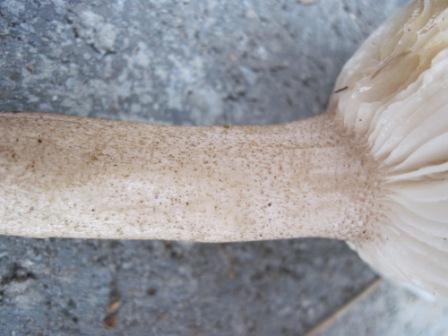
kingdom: Fungi
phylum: Basidiomycota
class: Agaricomycetes
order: Agaricales
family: Hygrophoraceae
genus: Hygrophorus
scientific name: Hygrophorus pustulatus
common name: mørkprikket sneglehat
